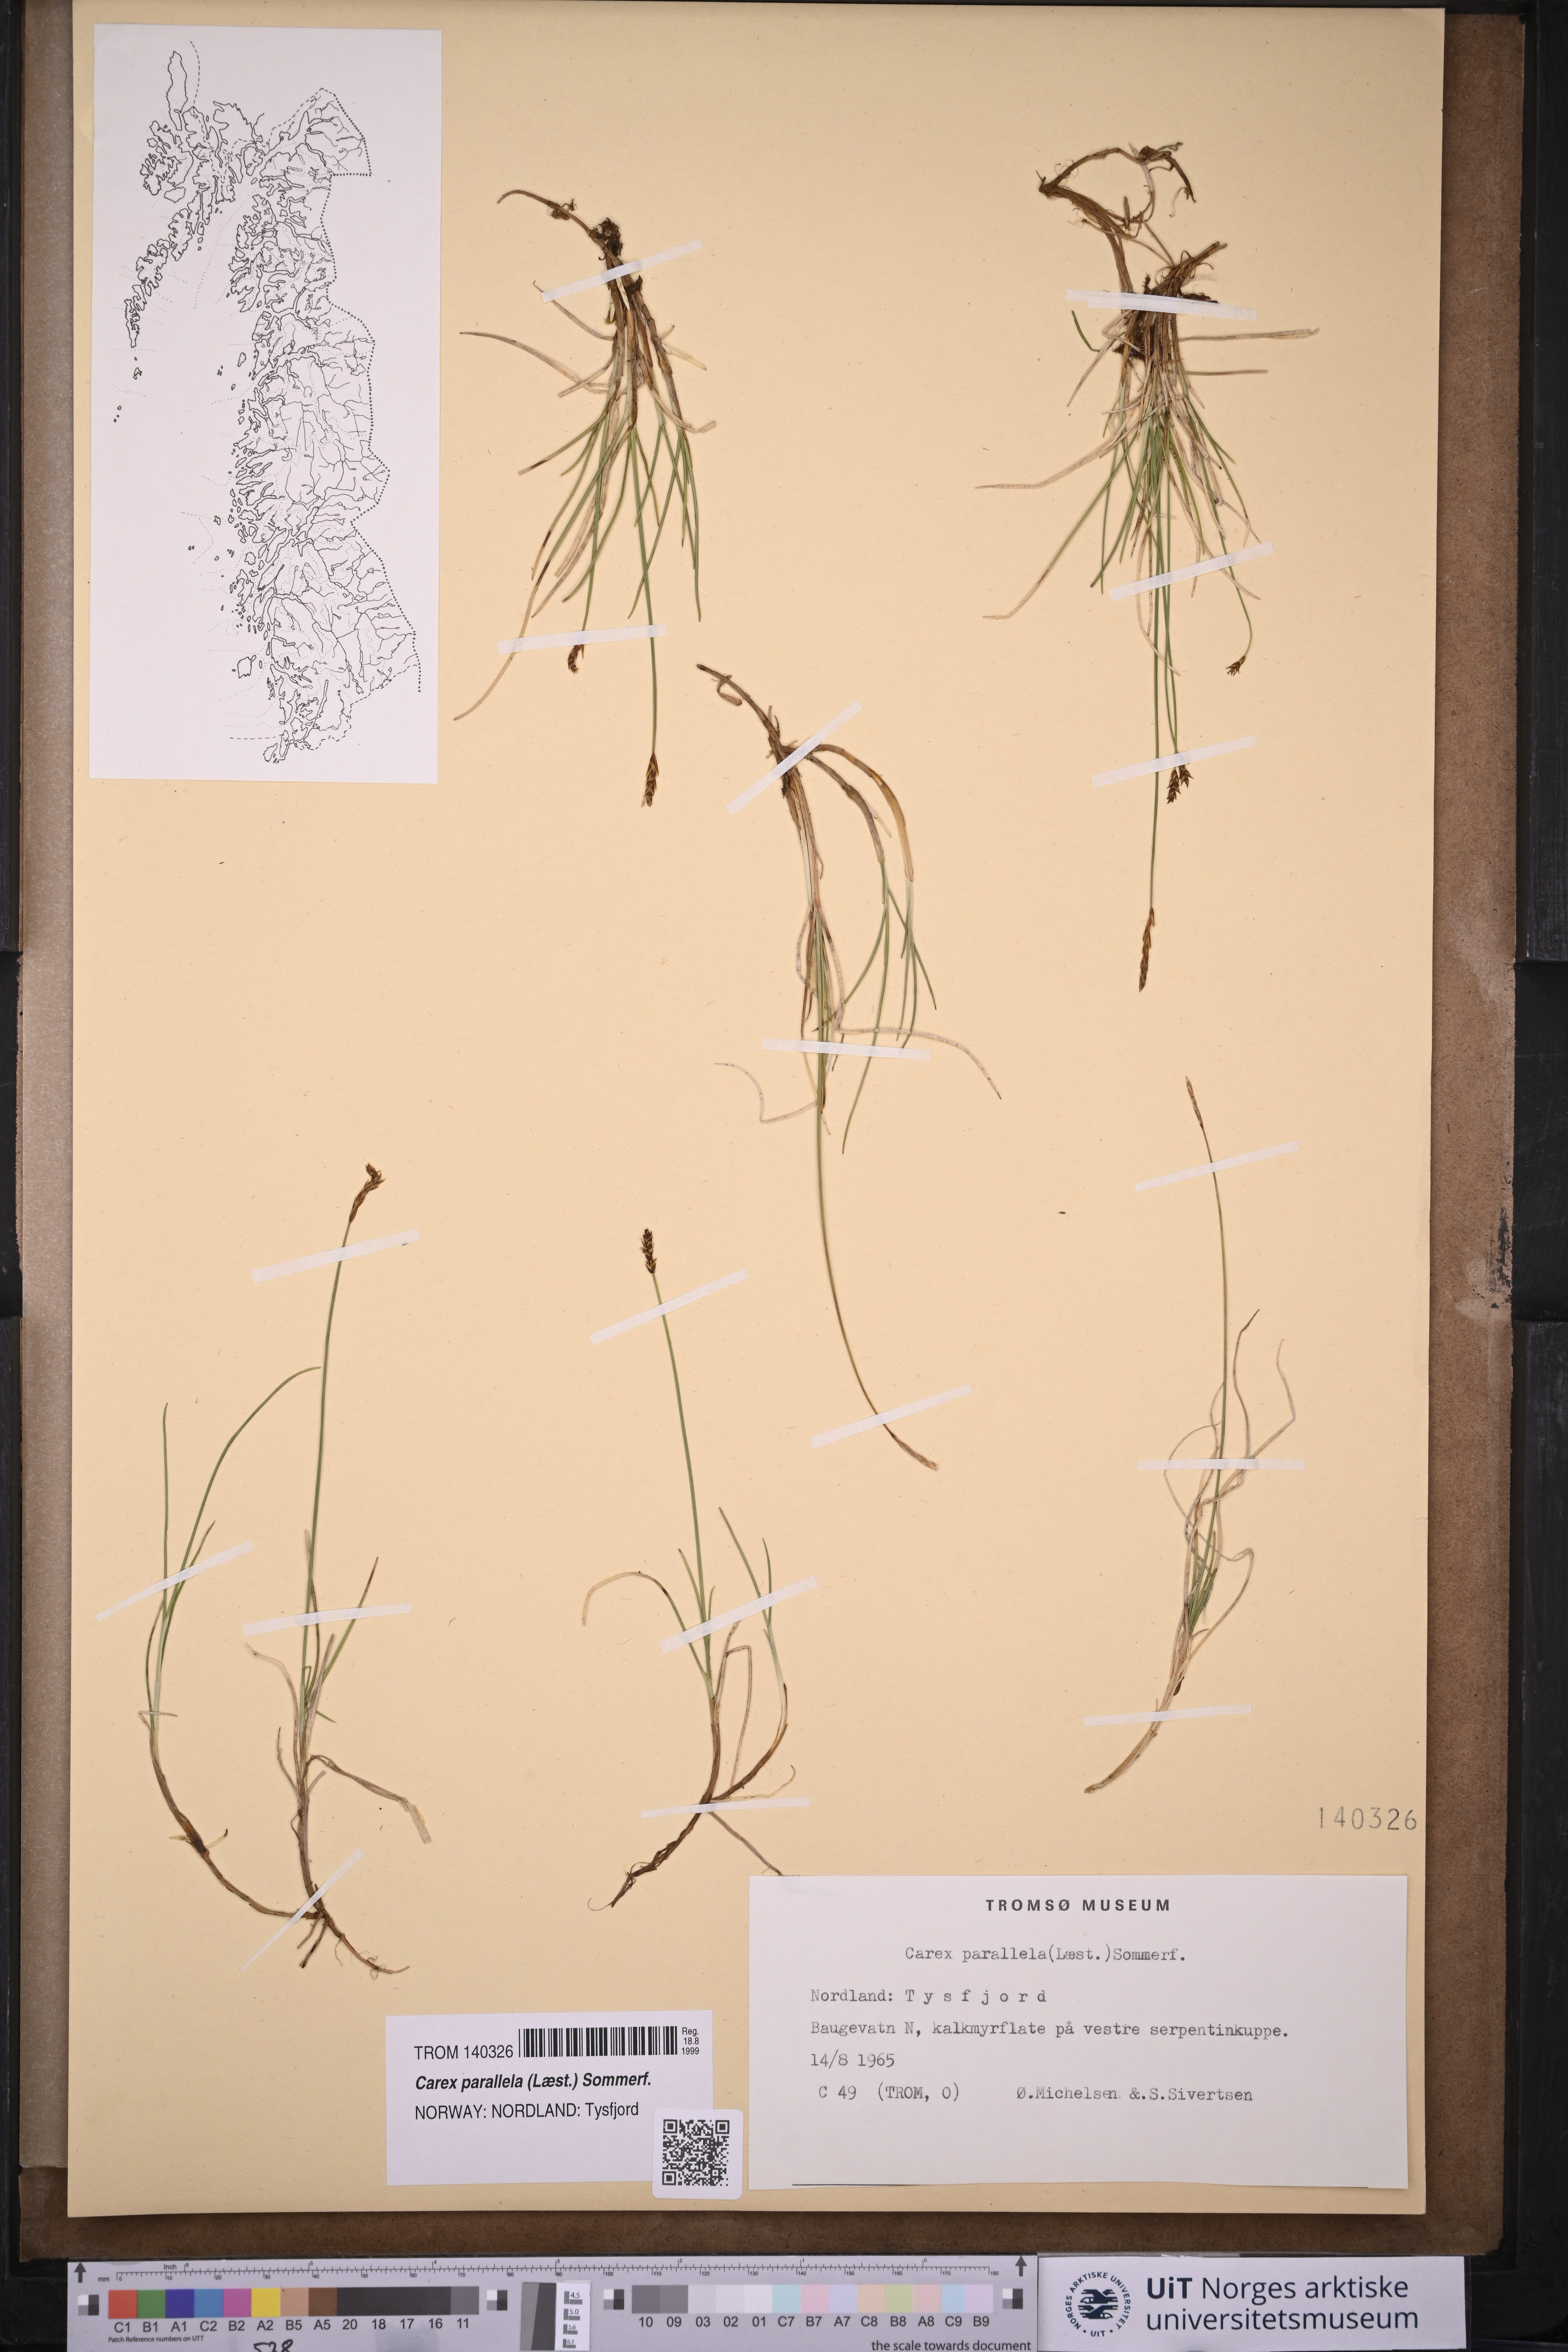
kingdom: Plantae
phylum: Tracheophyta
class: Liliopsida
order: Poales
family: Cyperaceae
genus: Carex
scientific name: Carex parallela
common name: Parallel sedge
